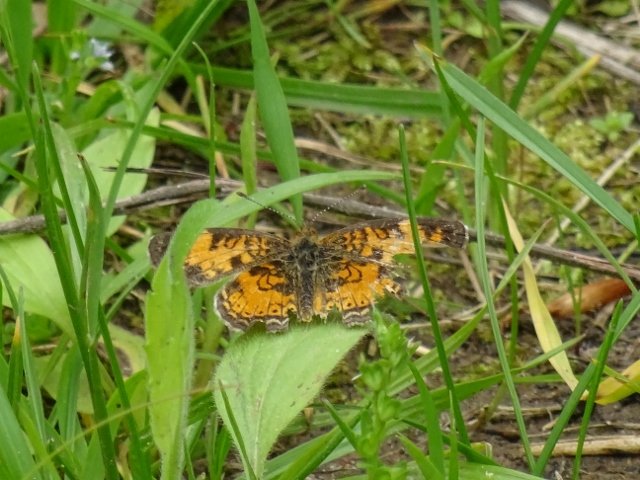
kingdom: Animalia
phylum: Arthropoda
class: Insecta
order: Lepidoptera
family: Nymphalidae
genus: Phyciodes
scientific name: Phyciodes tharos
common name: Pearl Crescent
